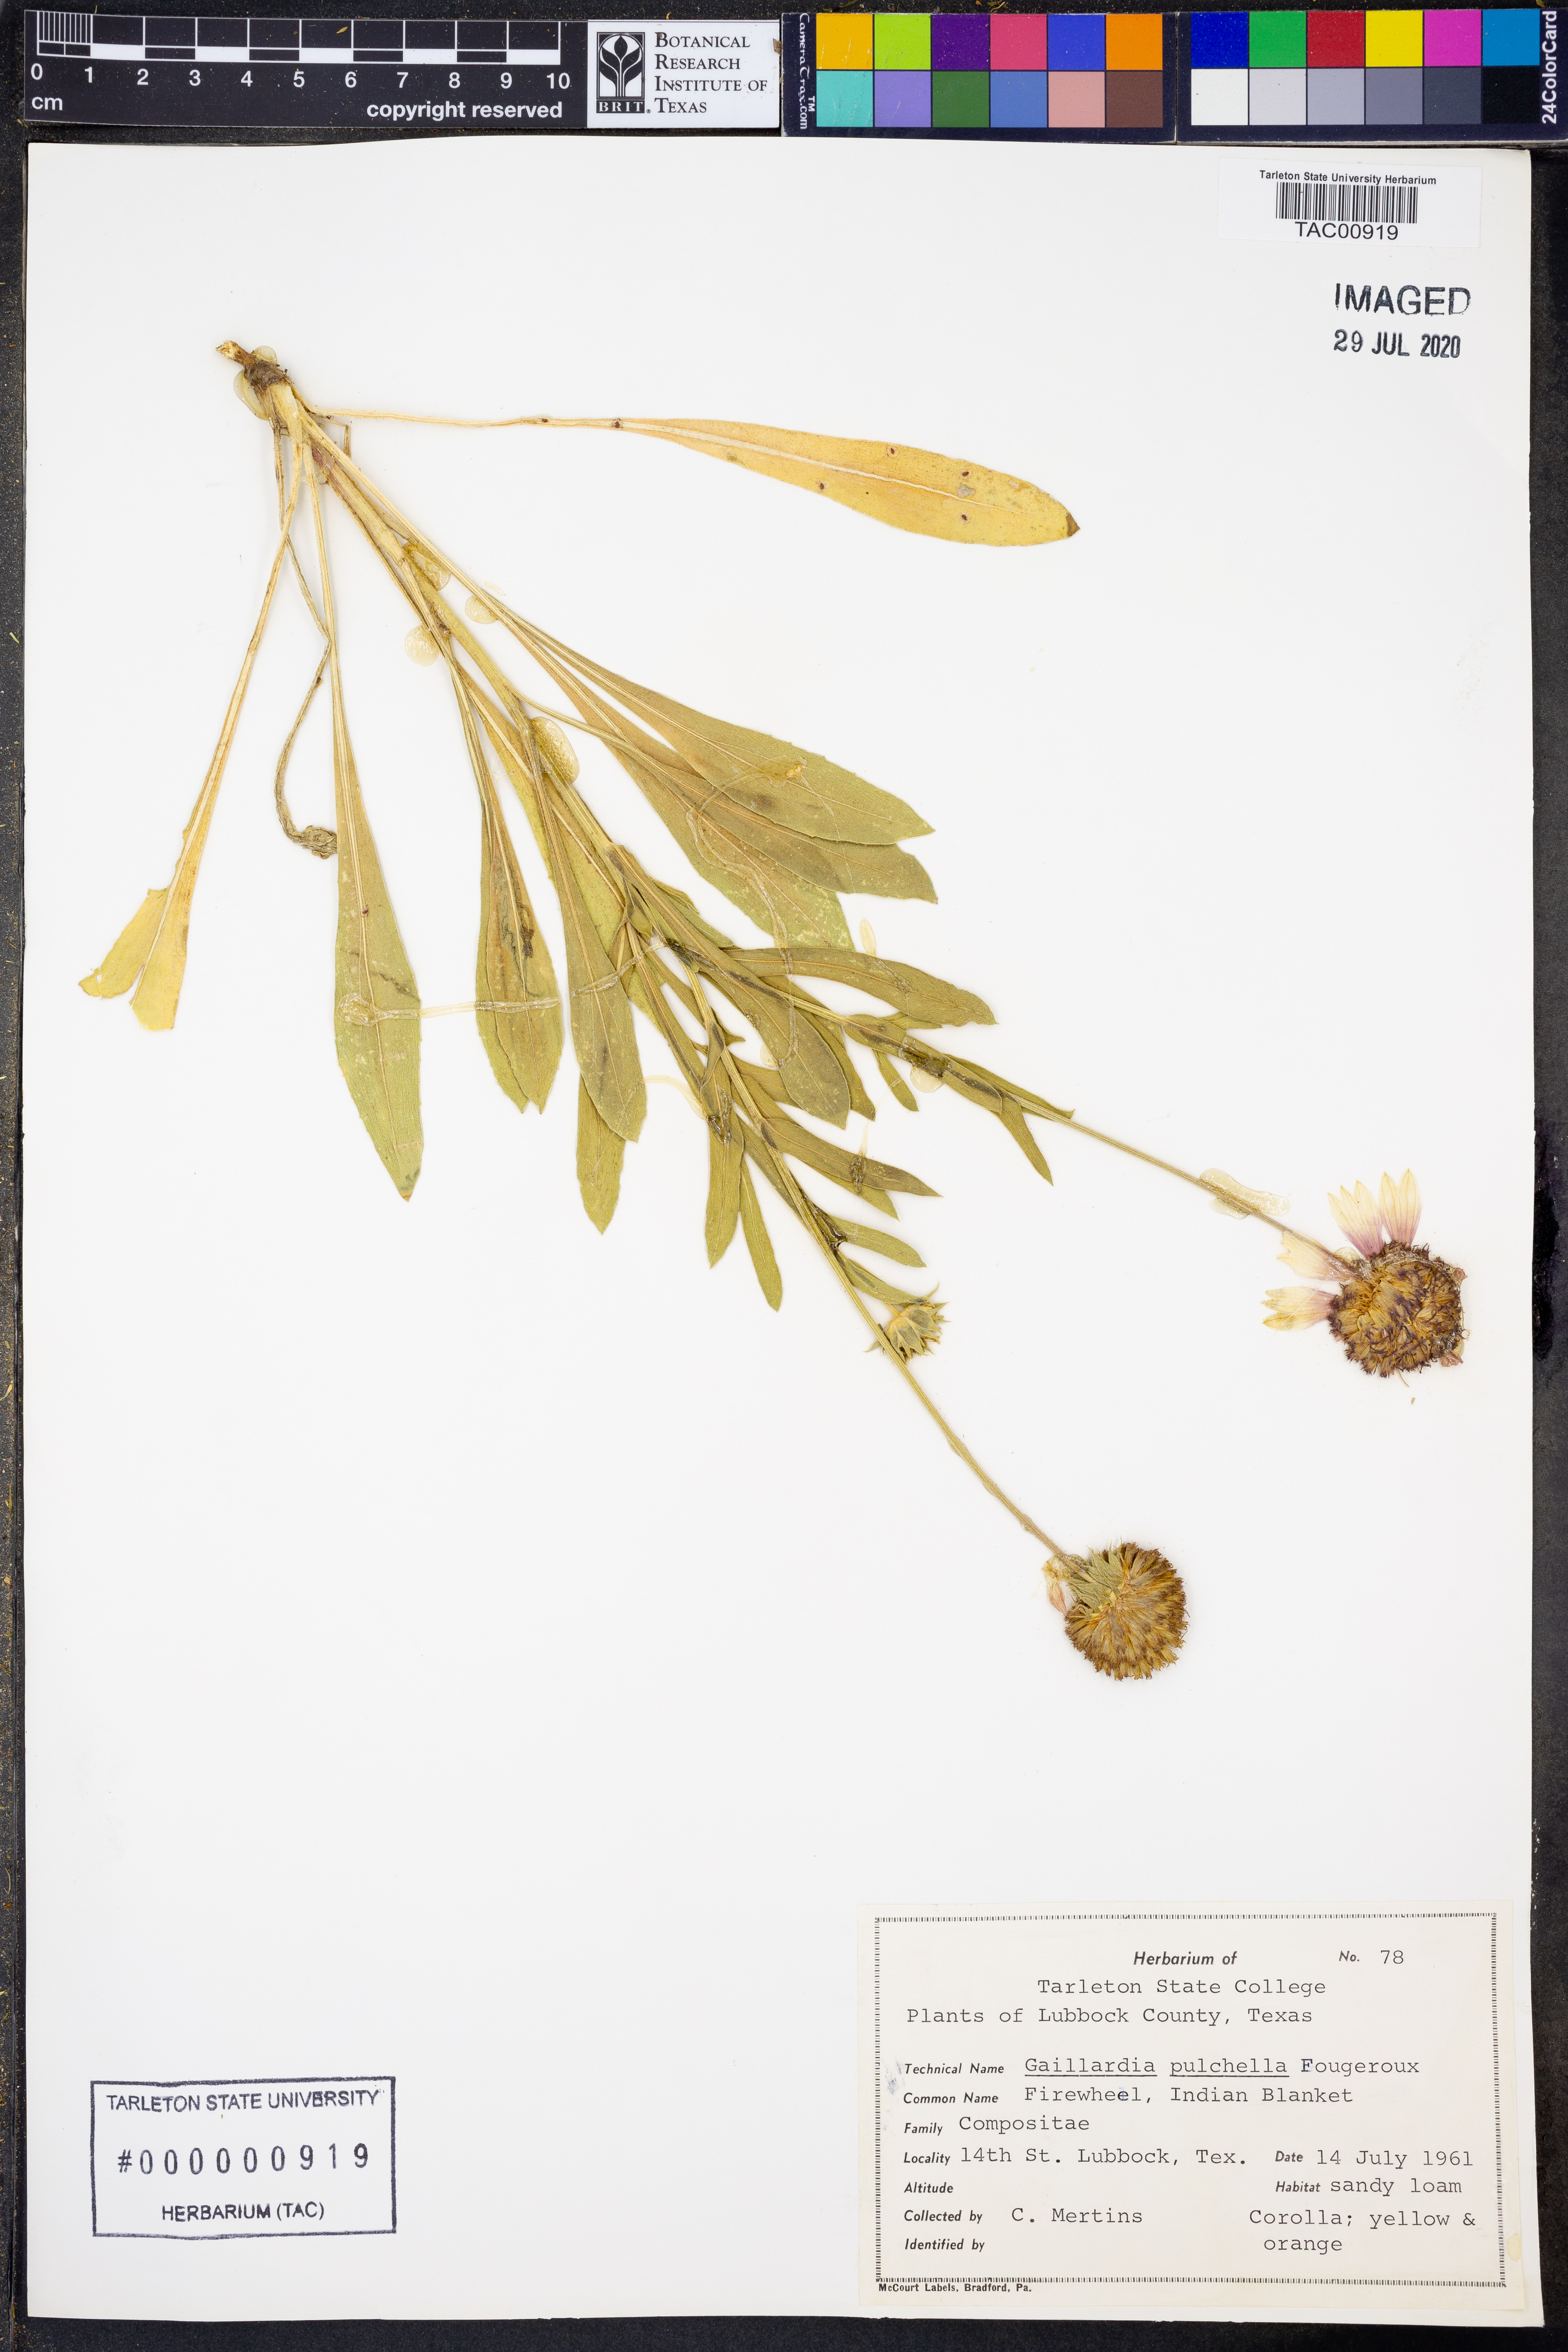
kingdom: Plantae
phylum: Tracheophyta
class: Magnoliopsida
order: Asterales
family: Asteraceae
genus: Gaillardia
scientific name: Gaillardia pulchella
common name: Firewheel
